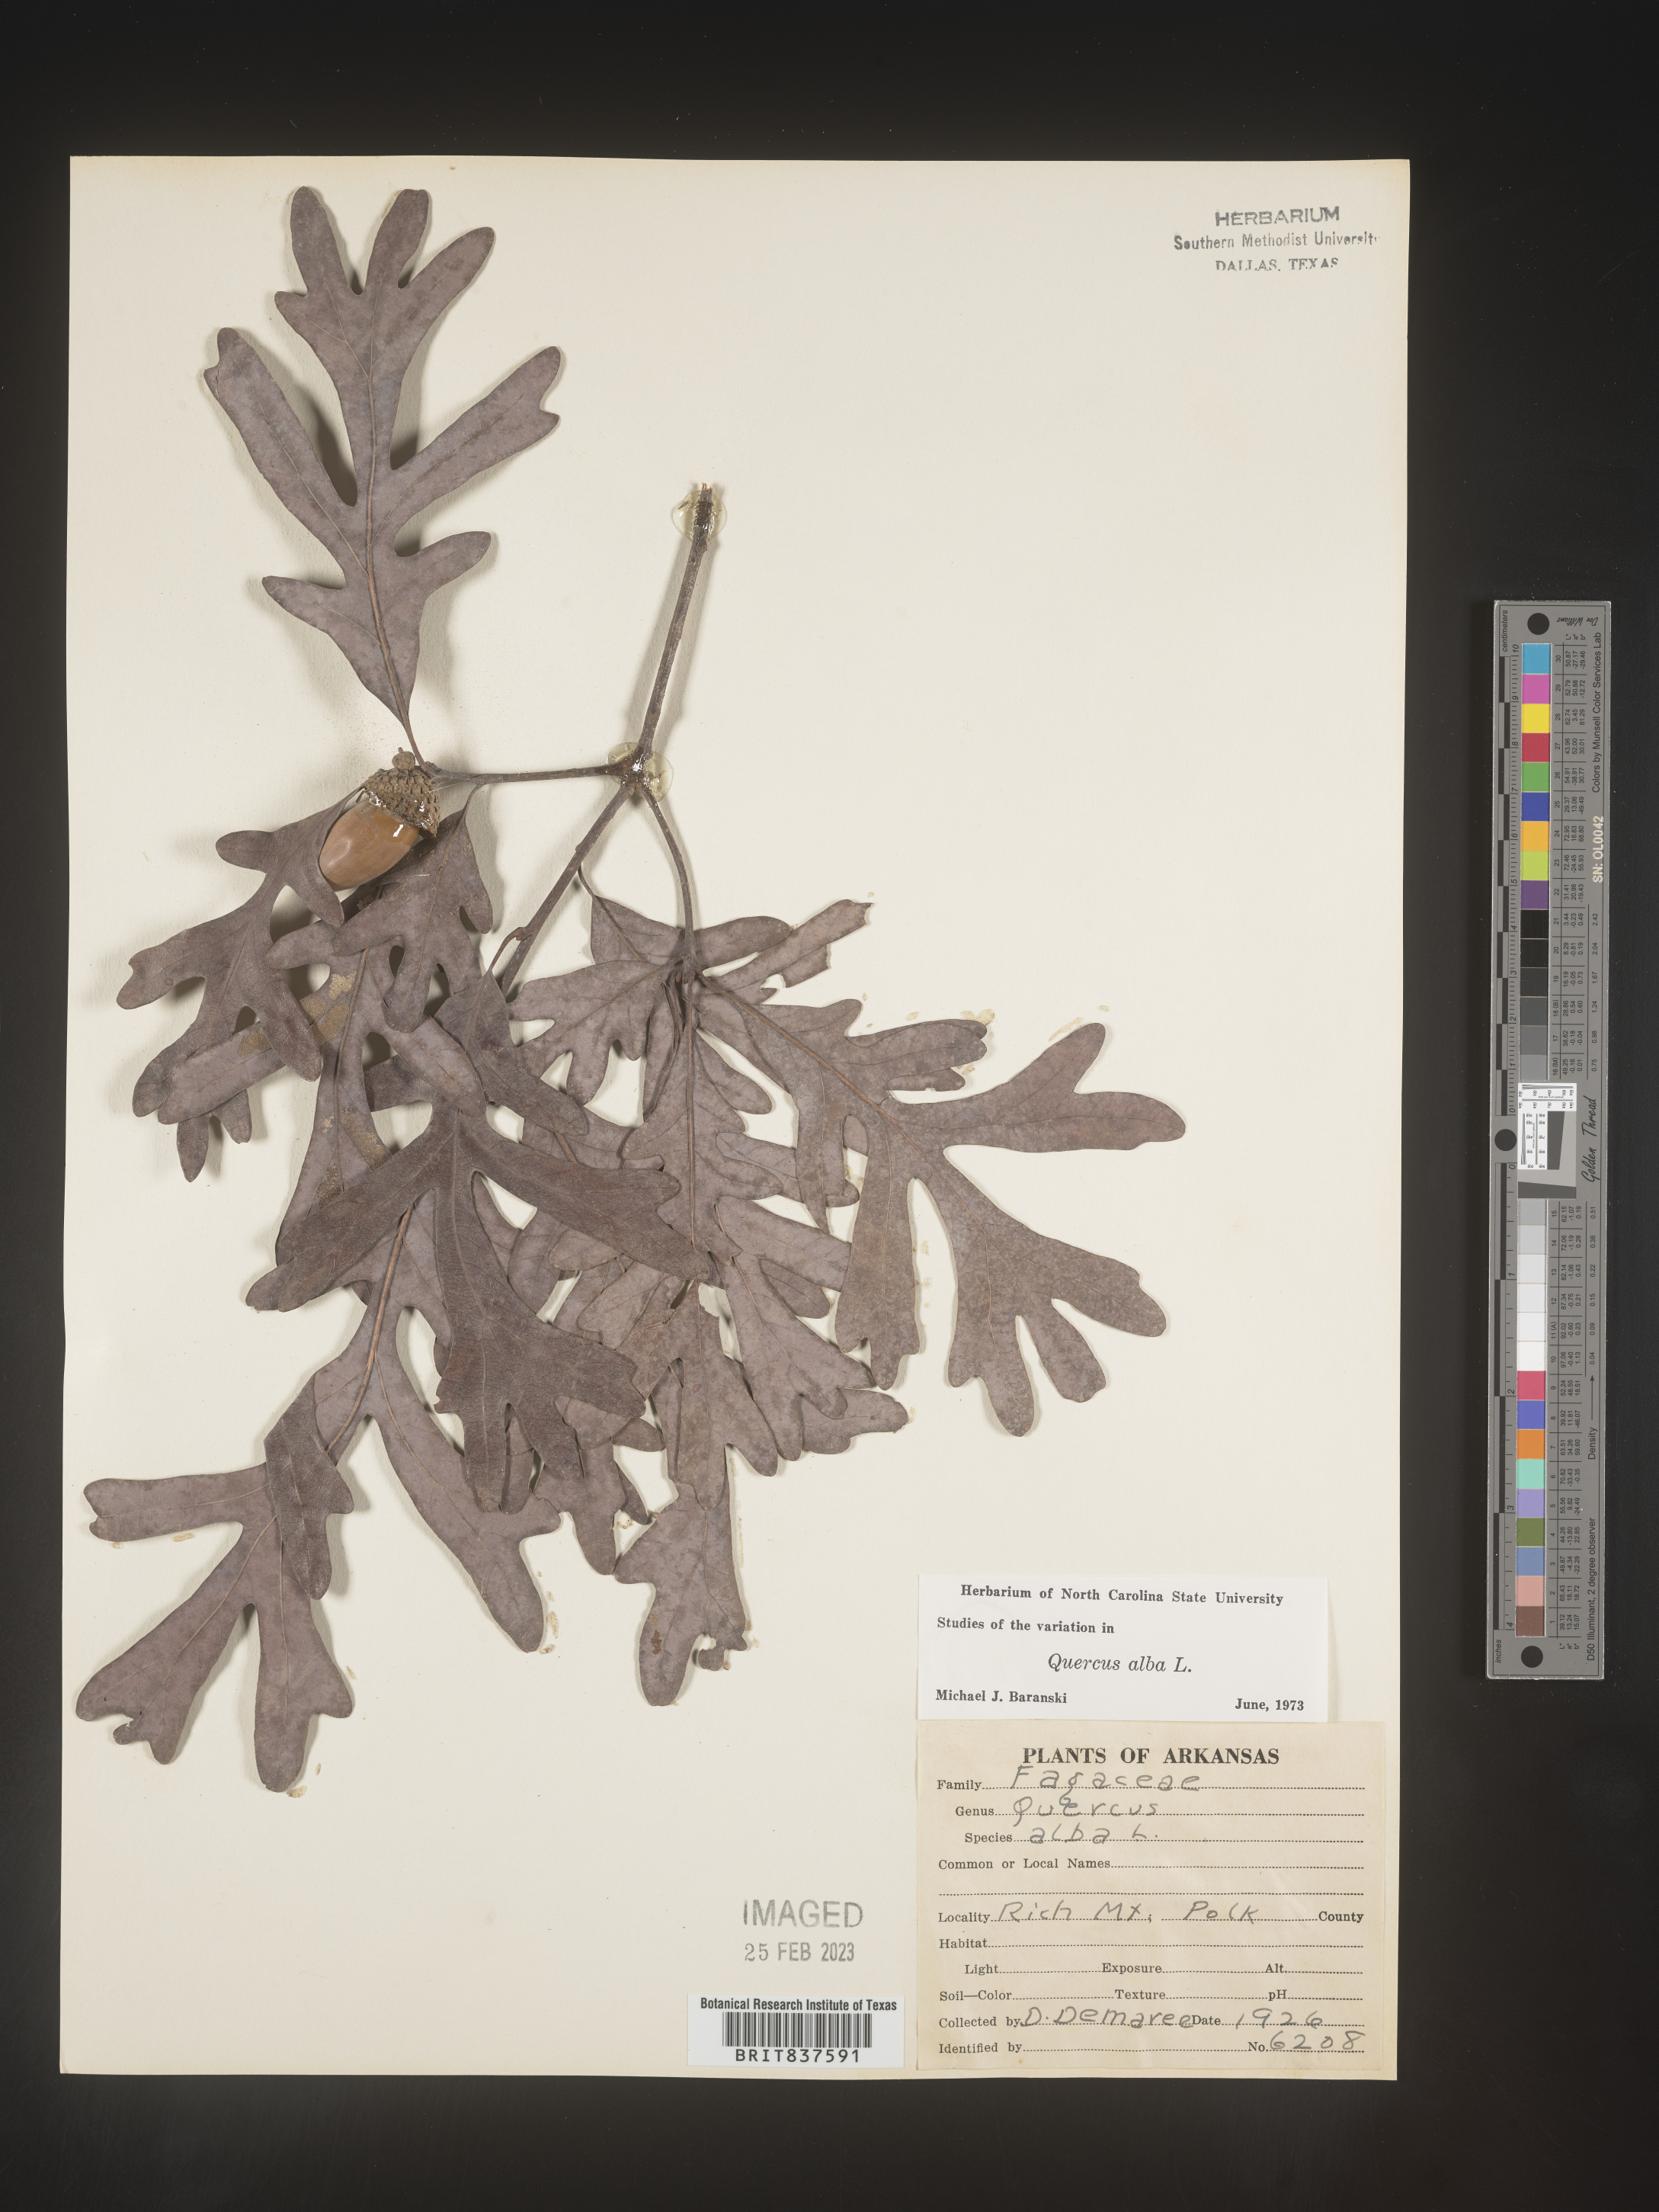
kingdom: Plantae
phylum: Tracheophyta
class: Magnoliopsida
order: Fagales
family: Fagaceae
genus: Quercus
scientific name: Quercus alba
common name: White oak
